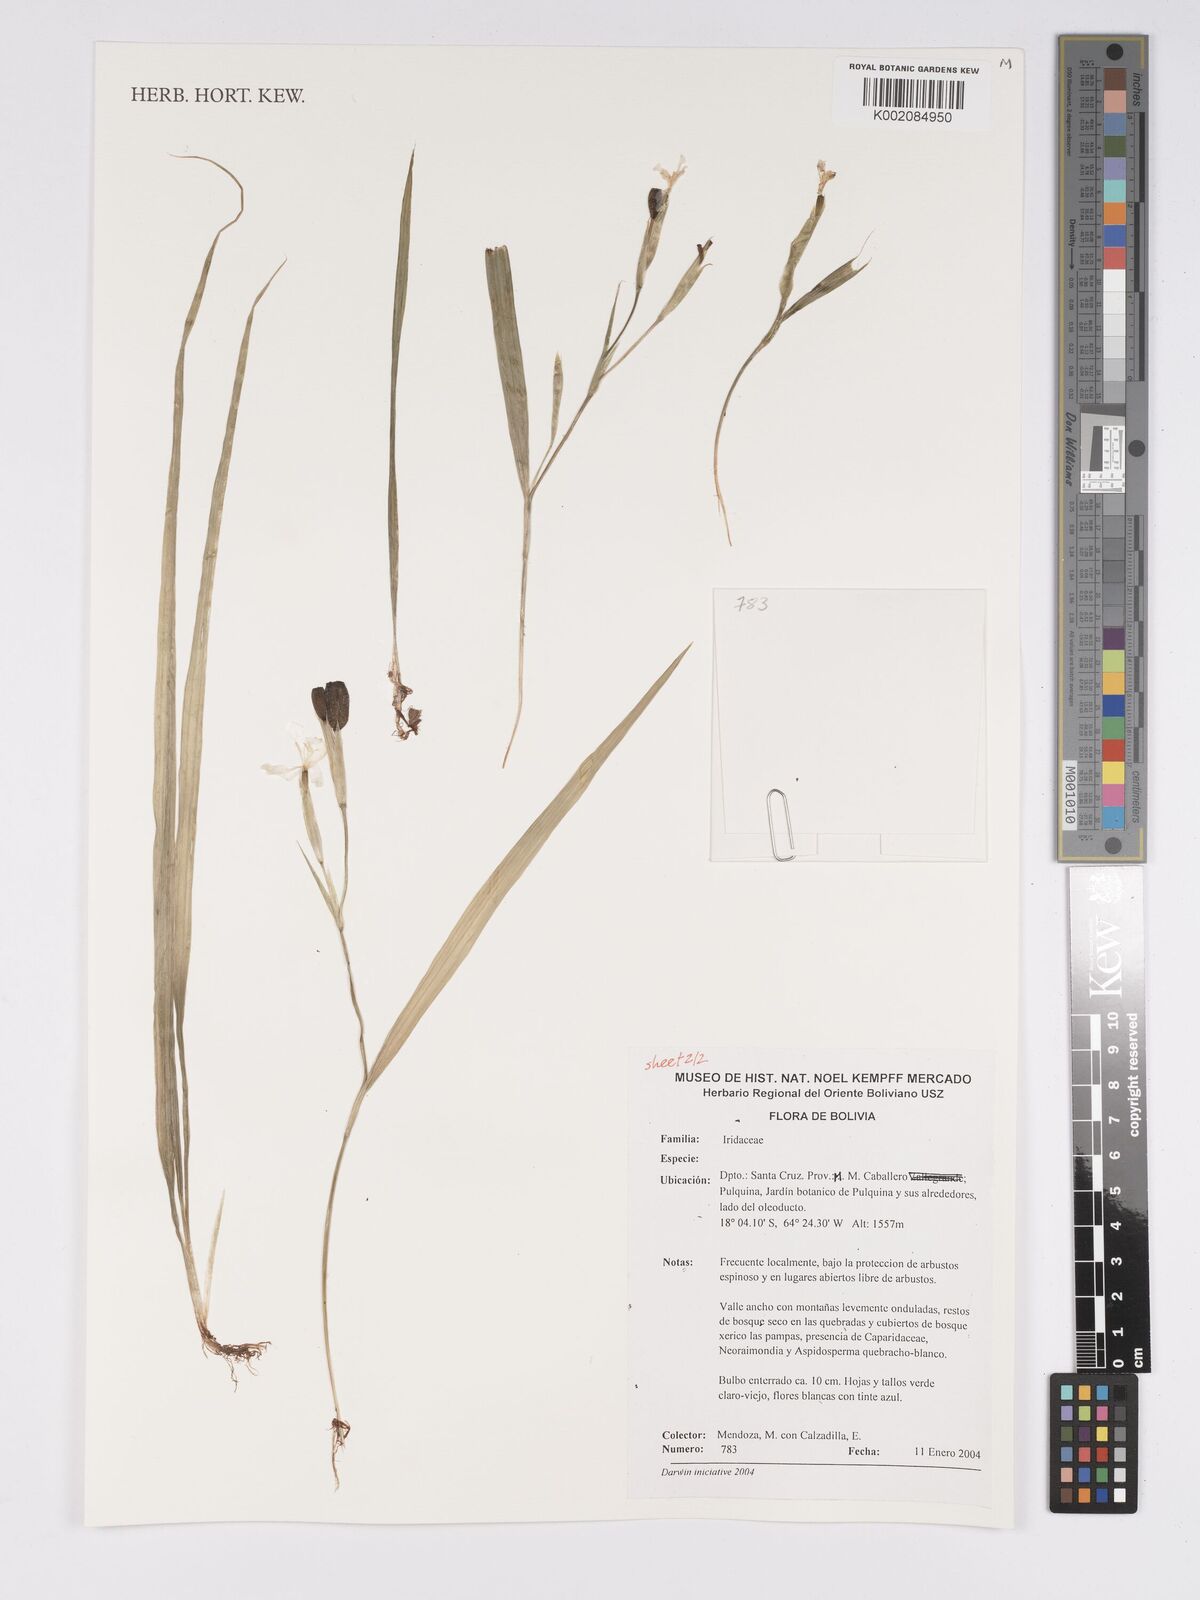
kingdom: Plantae
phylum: Tracheophyta
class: Liliopsida
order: Asparagales
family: Iridaceae
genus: Cipura
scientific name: Cipura
